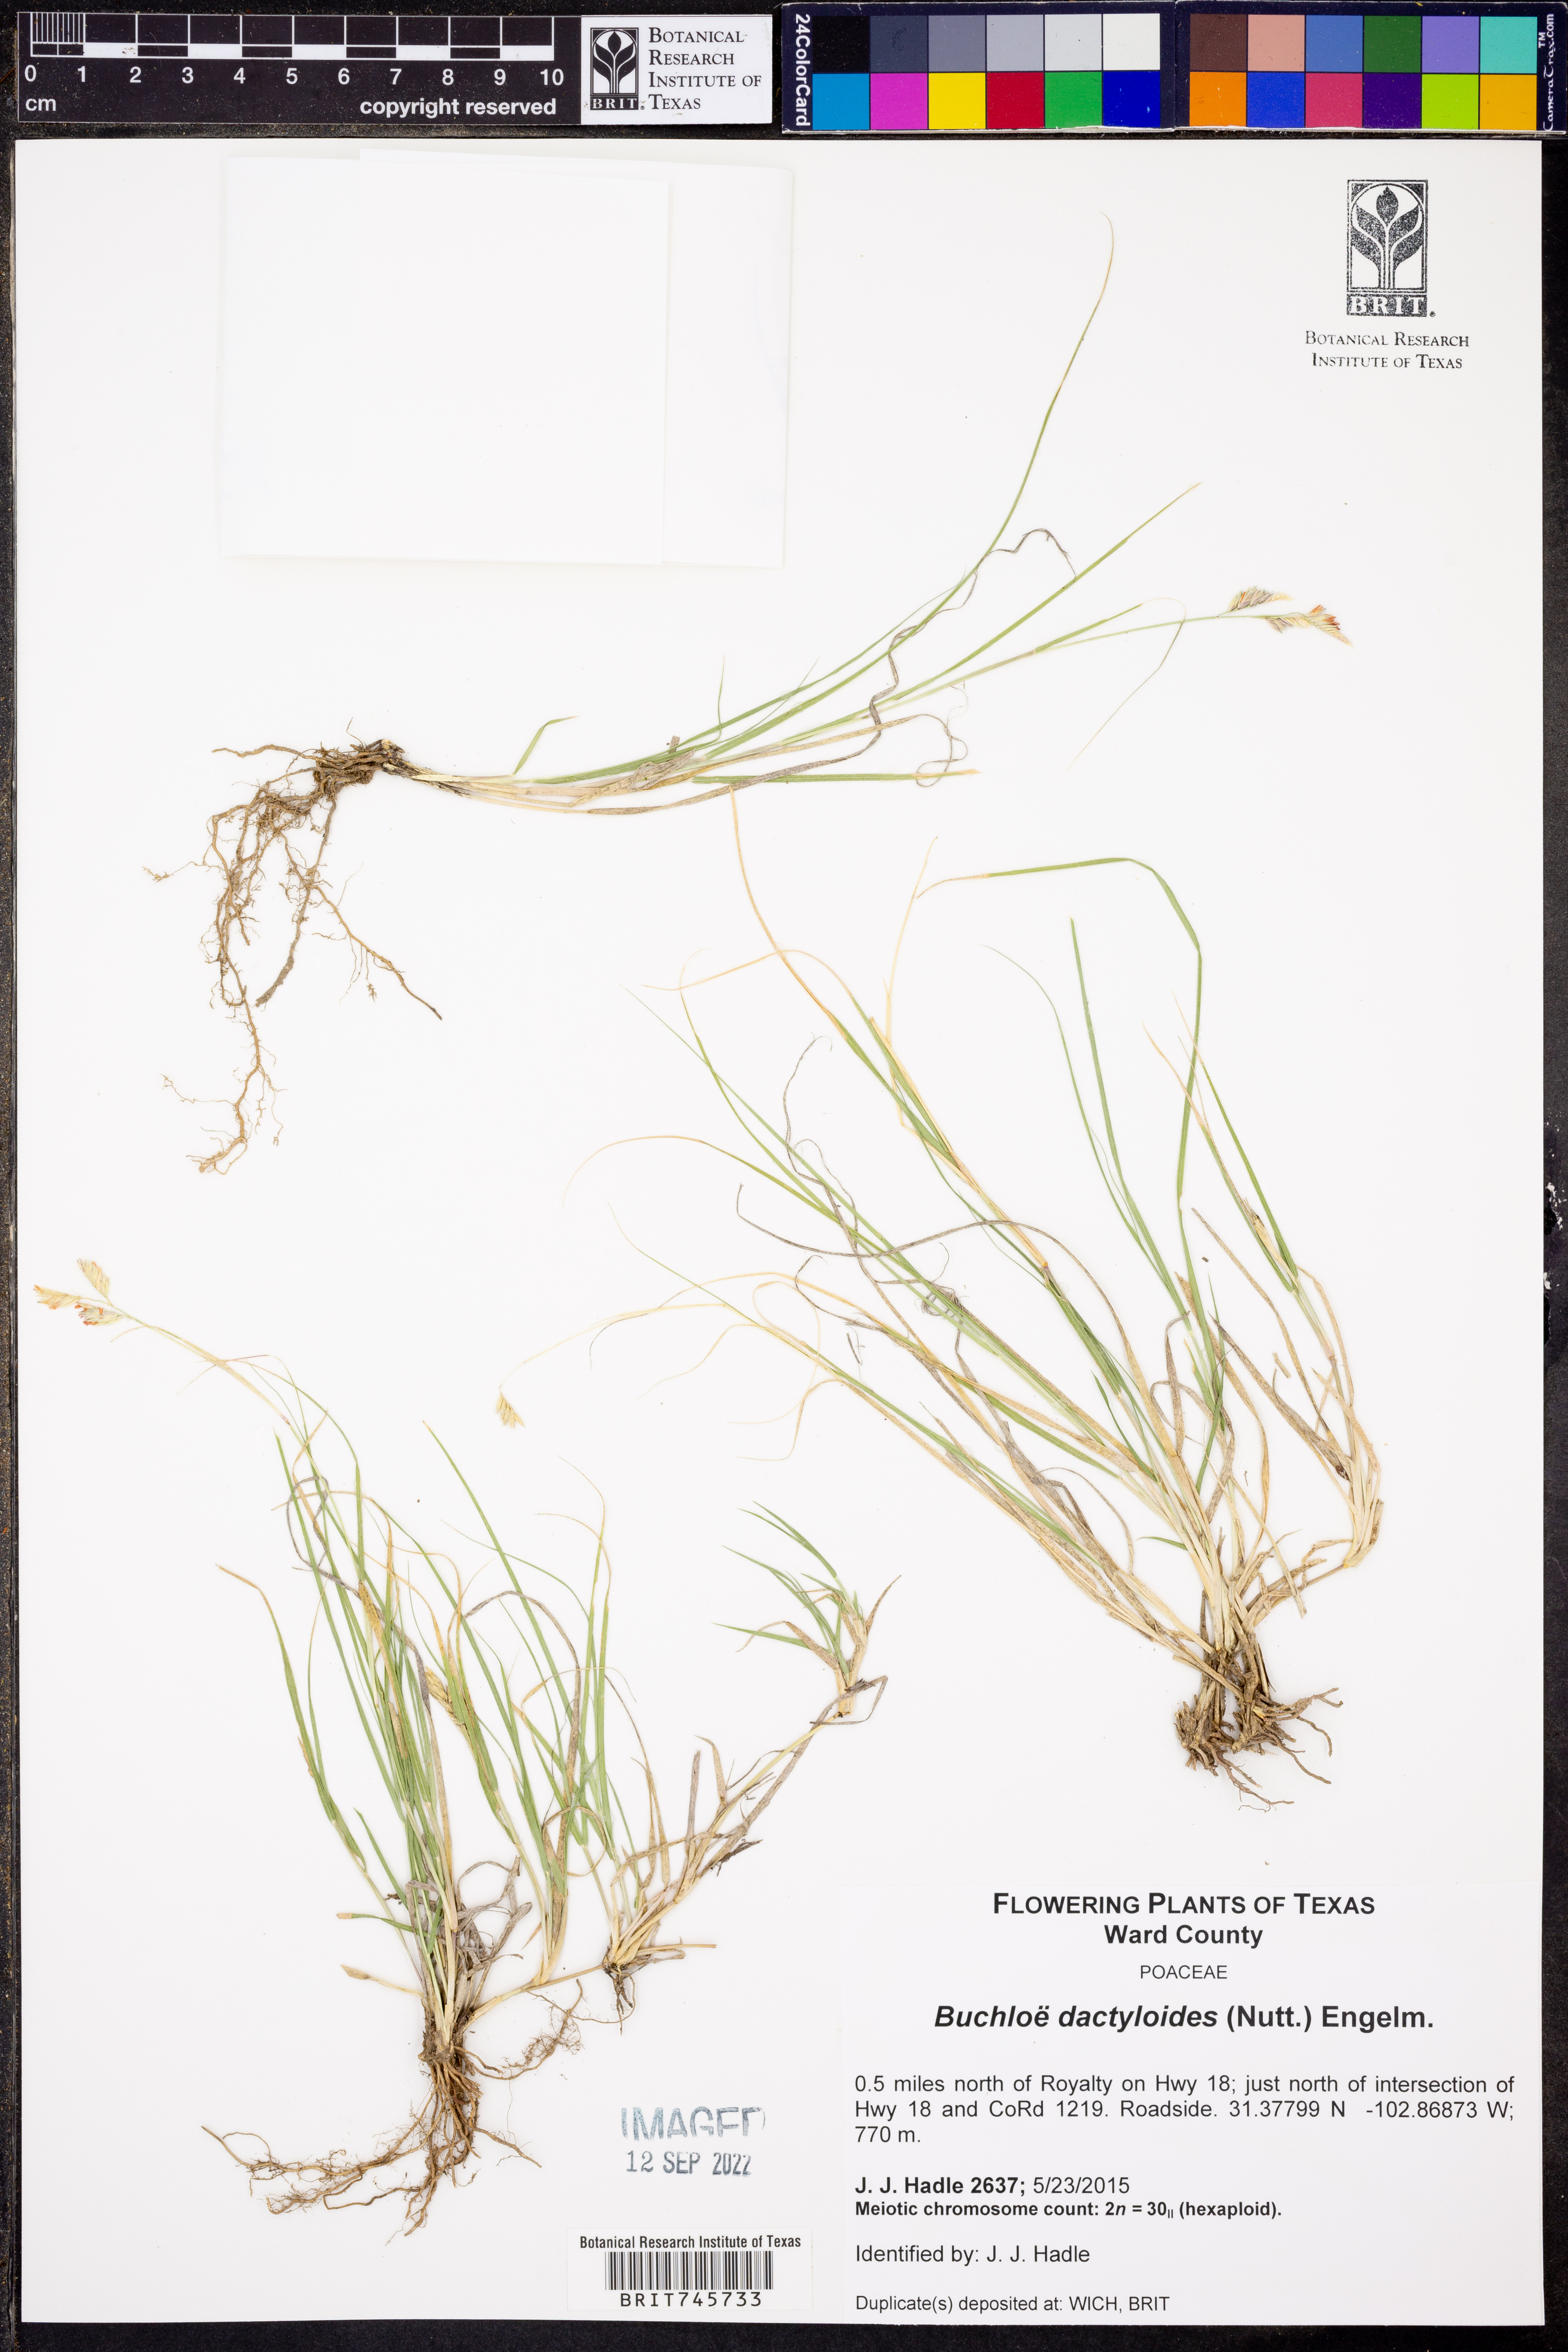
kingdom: Plantae
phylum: Tracheophyta
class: Liliopsida
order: Poales
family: Poaceae
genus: Bouteloua
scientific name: Bouteloua dactyloides
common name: Buffalo grass
